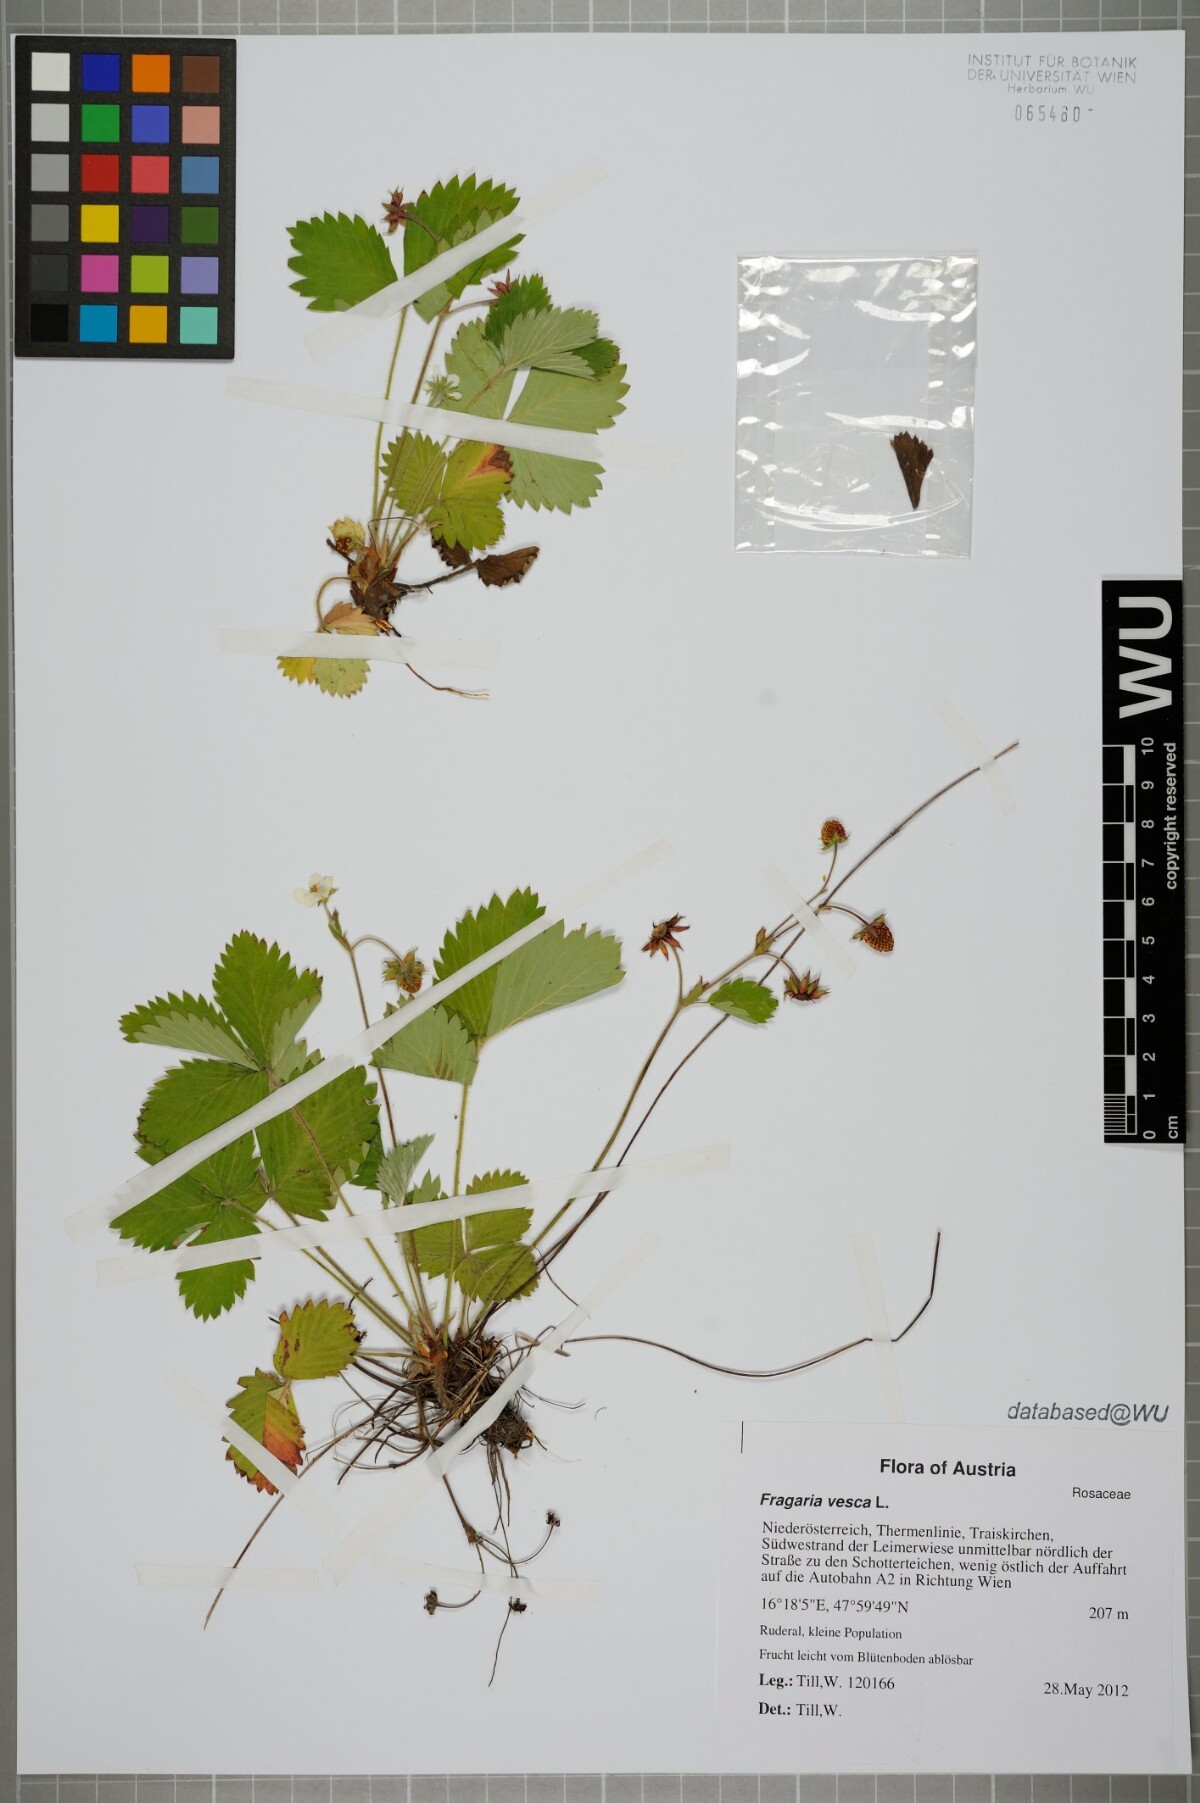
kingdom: Plantae
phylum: Tracheophyta
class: Magnoliopsida
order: Rosales
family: Rosaceae
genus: Fragaria
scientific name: Fragaria vesca
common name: Wild strawberry
